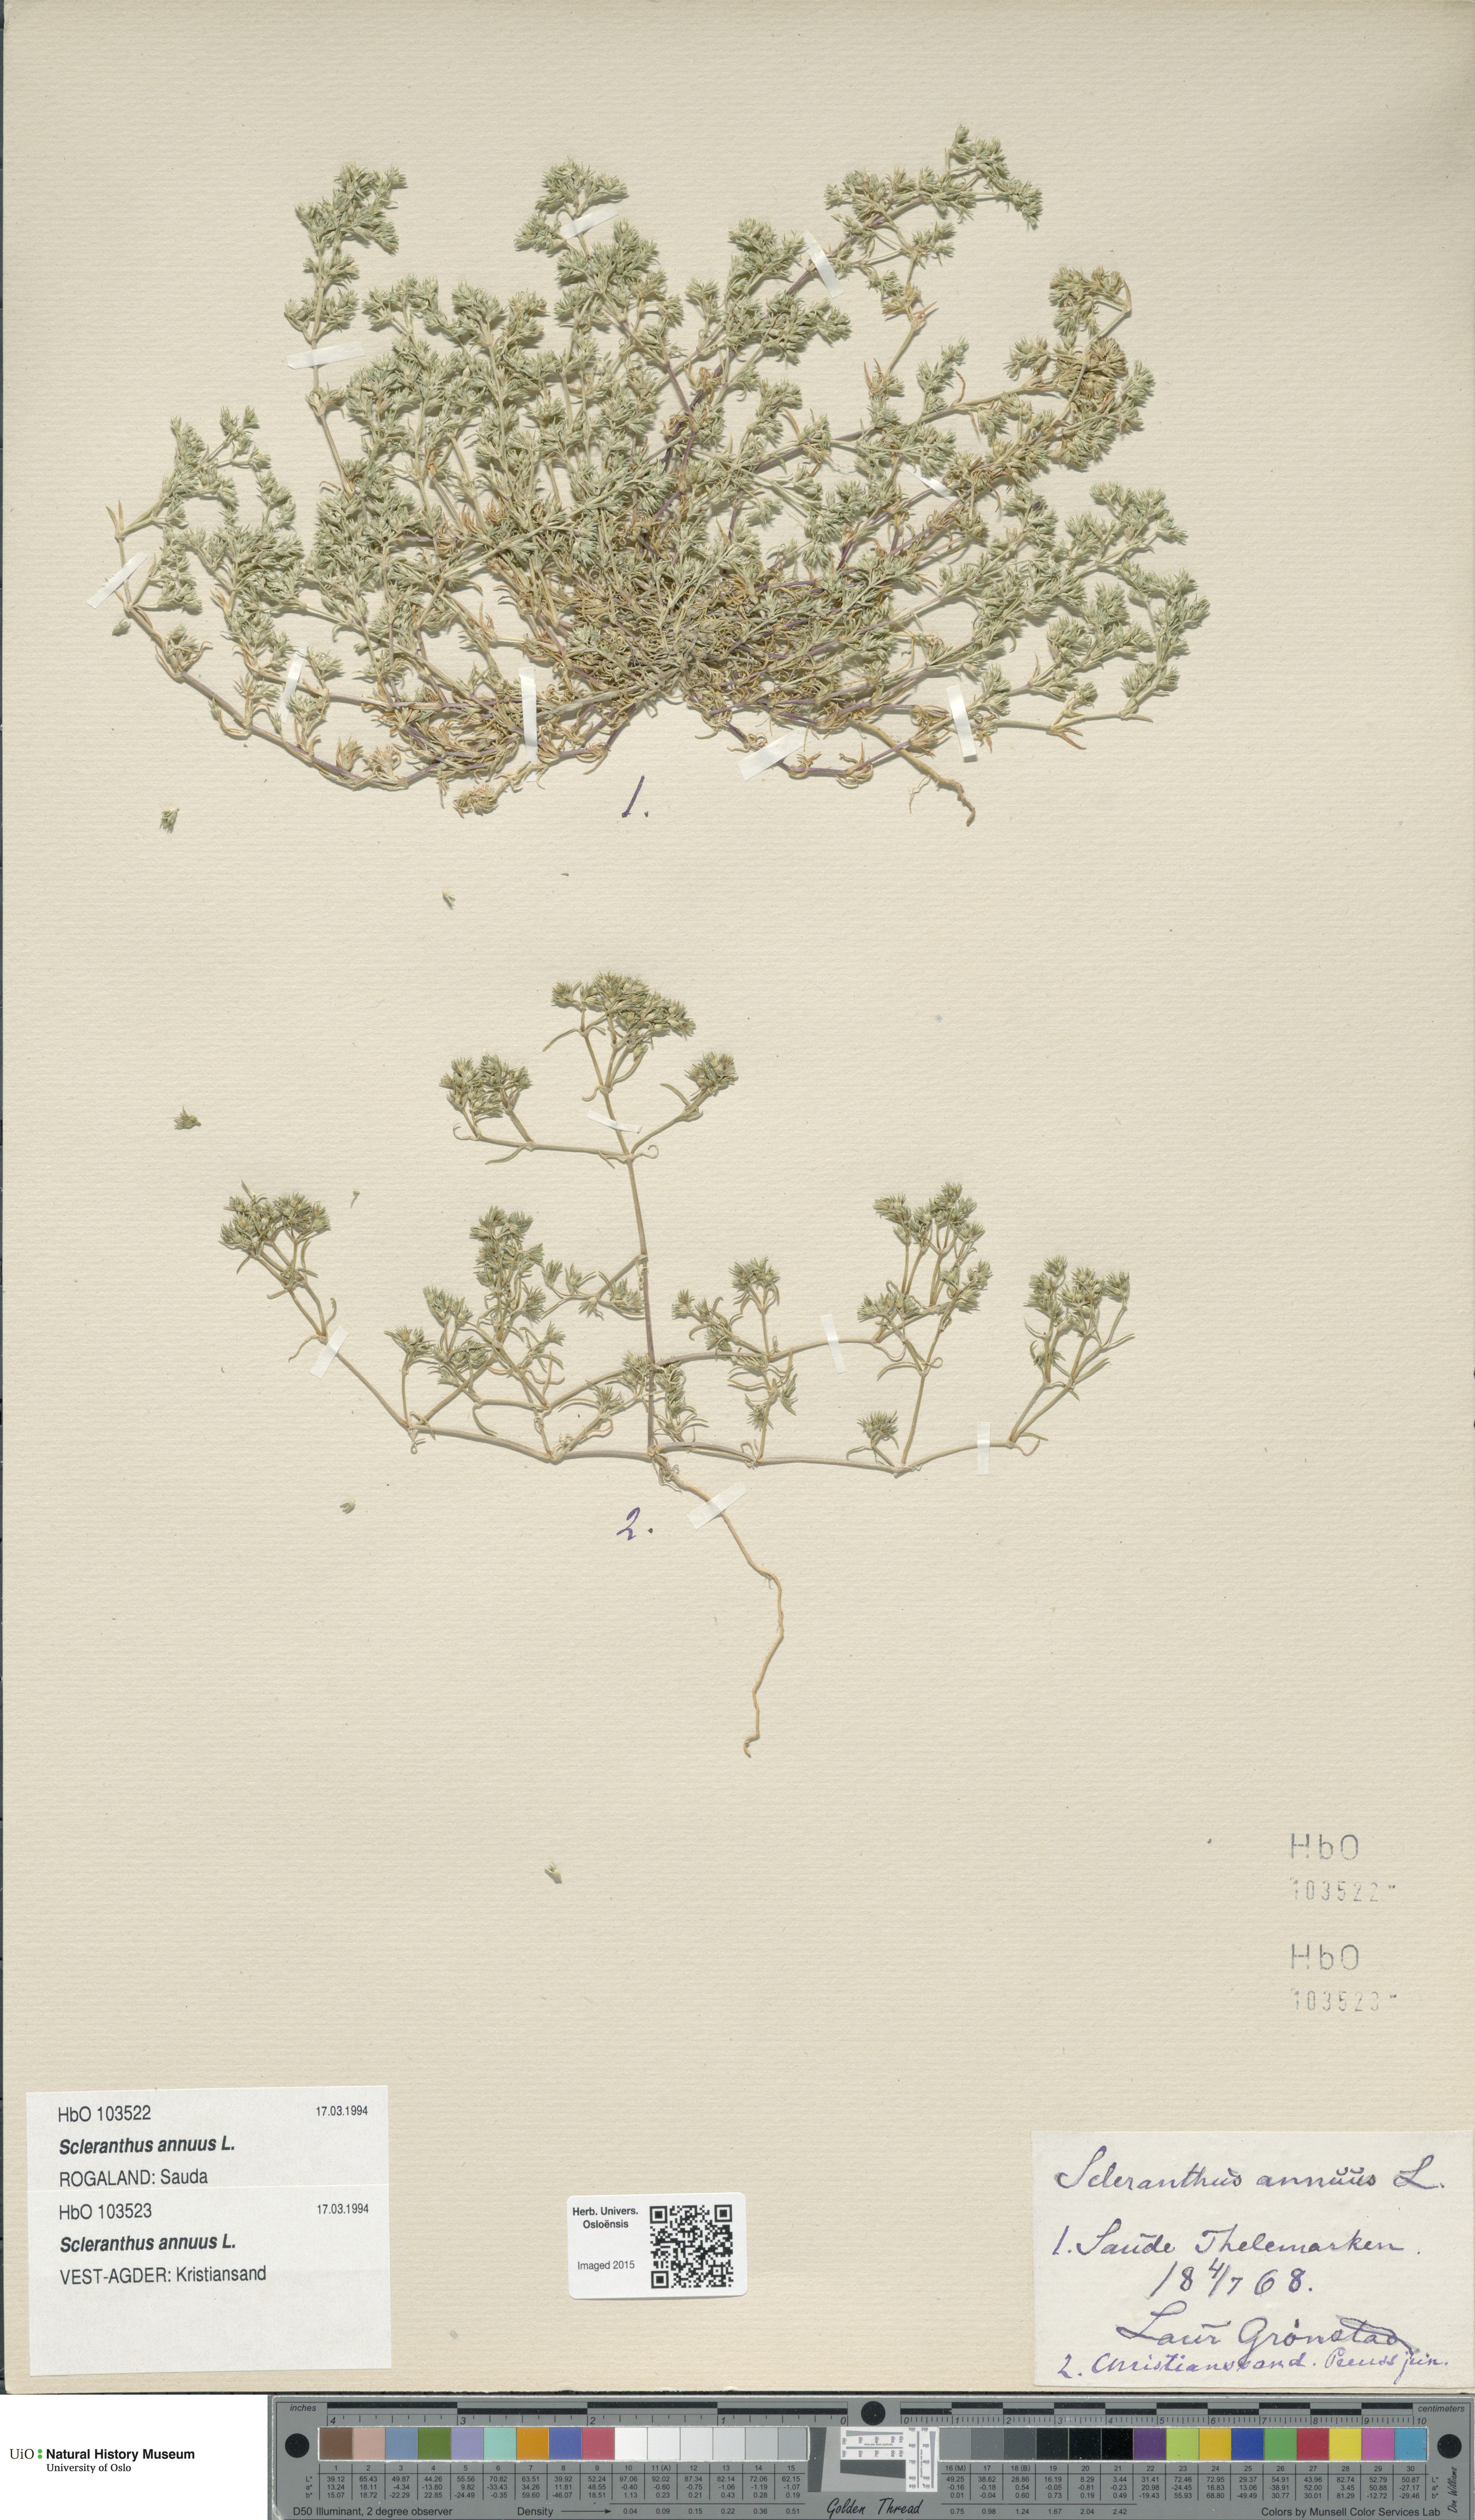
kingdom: Plantae
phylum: Tracheophyta
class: Magnoliopsida
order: Caryophyllales
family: Caryophyllaceae
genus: Scleranthus
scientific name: Scleranthus annuus
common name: Annual knawel
